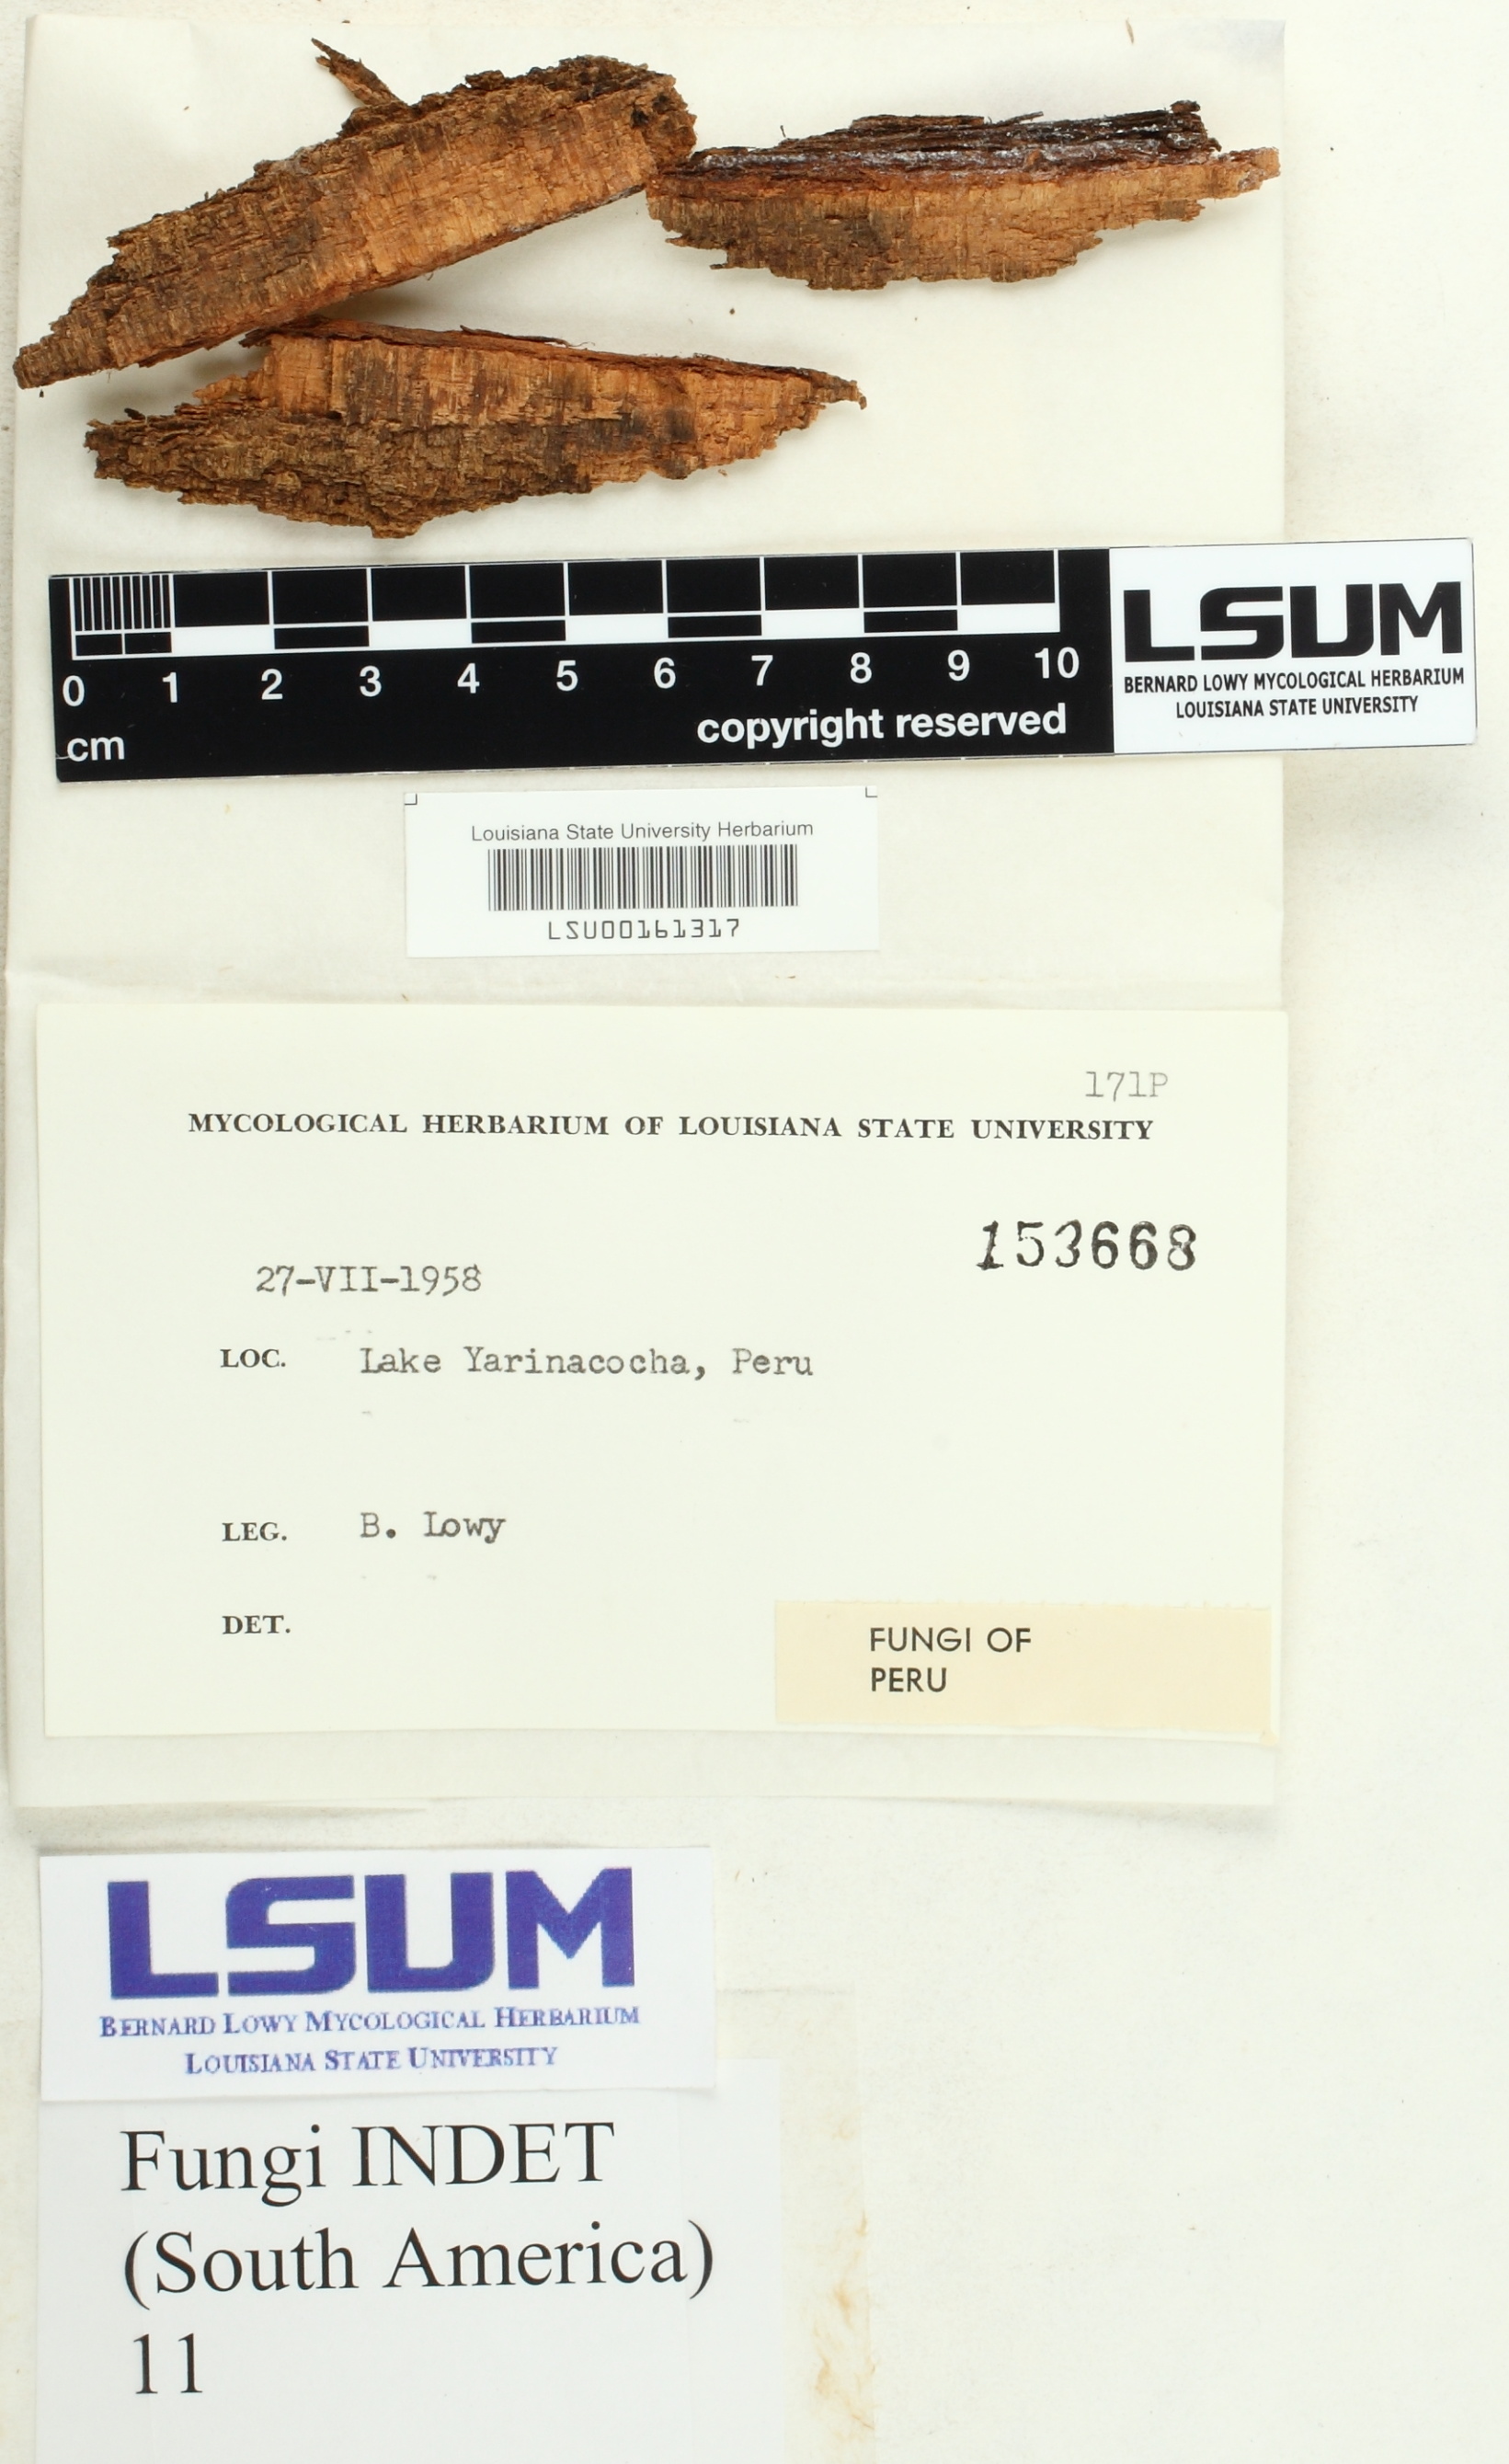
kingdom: Fungi
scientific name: Fungi
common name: Fungi
